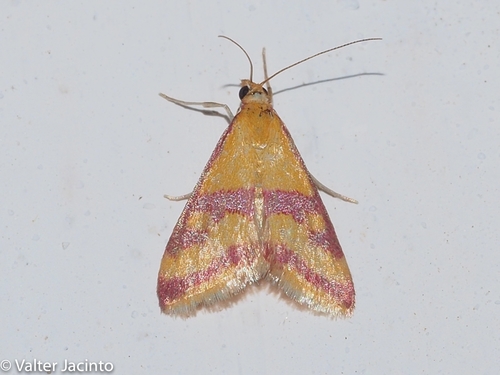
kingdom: Animalia
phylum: Arthropoda
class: Insecta
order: Lepidoptera
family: Crambidae
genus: Pyrausta
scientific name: Pyrausta sanguinalis
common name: Scarce crimson and gold
